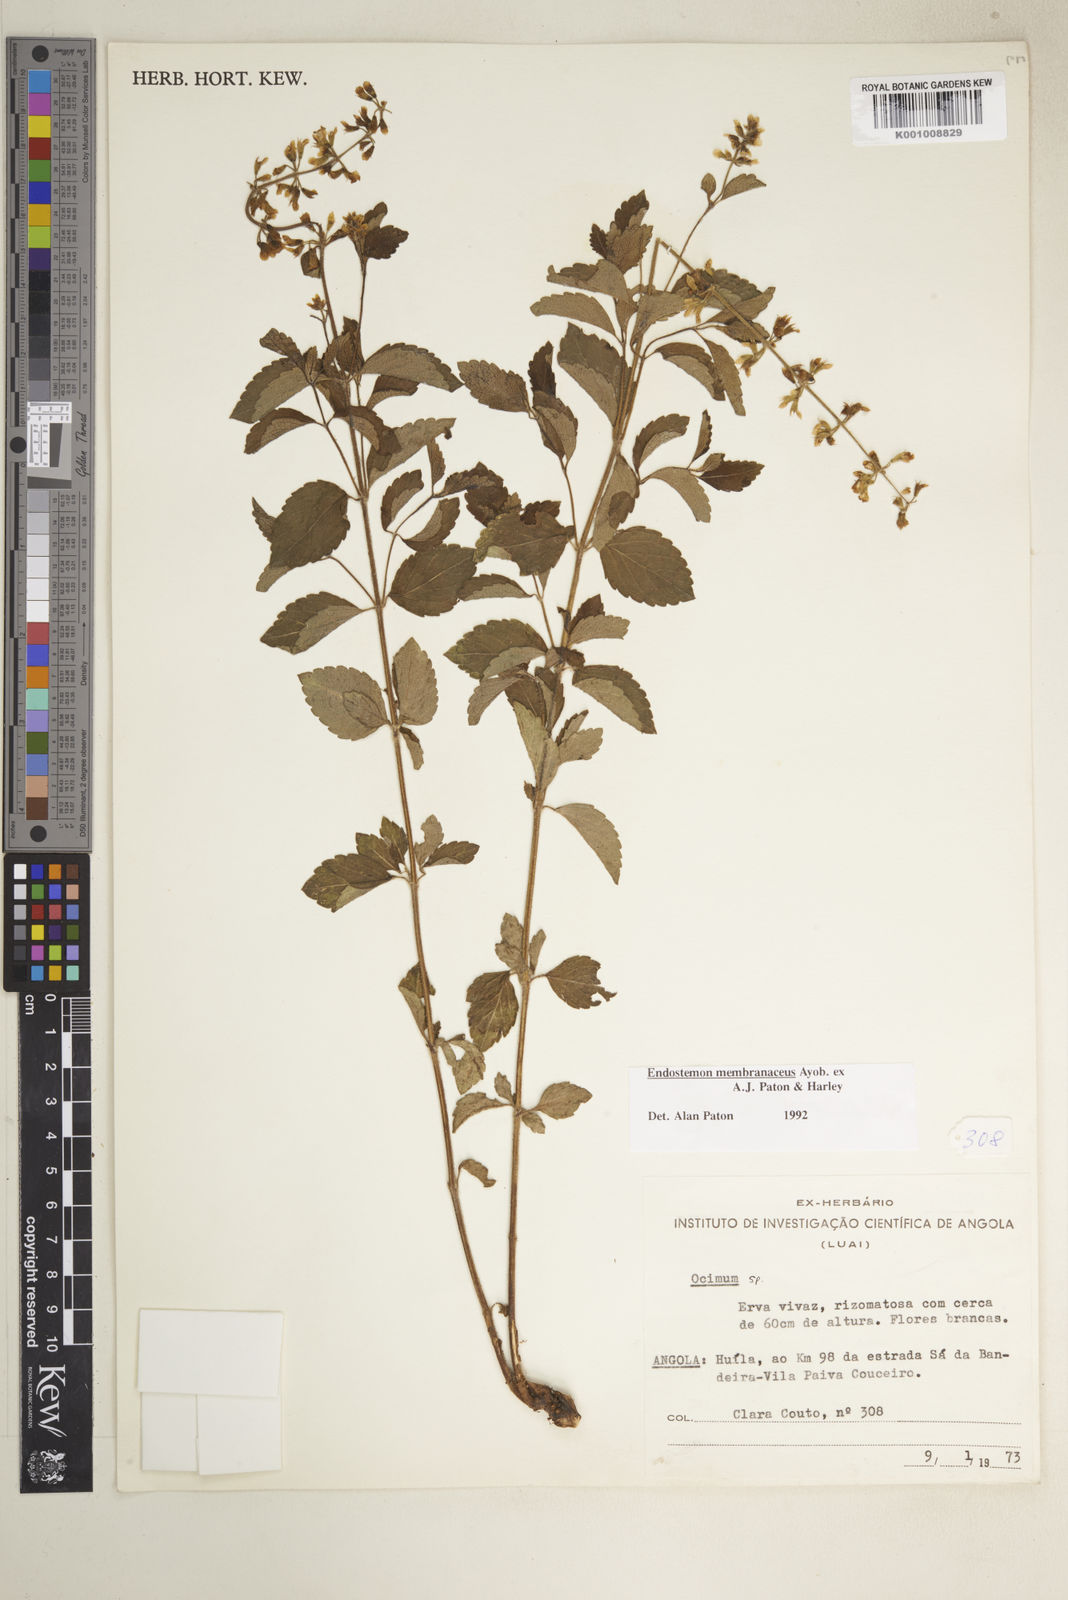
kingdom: Plantae
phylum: Tracheophyta
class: Magnoliopsida
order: Lamiales
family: Lamiaceae
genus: Endostemon
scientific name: Endostemon membranaceus
